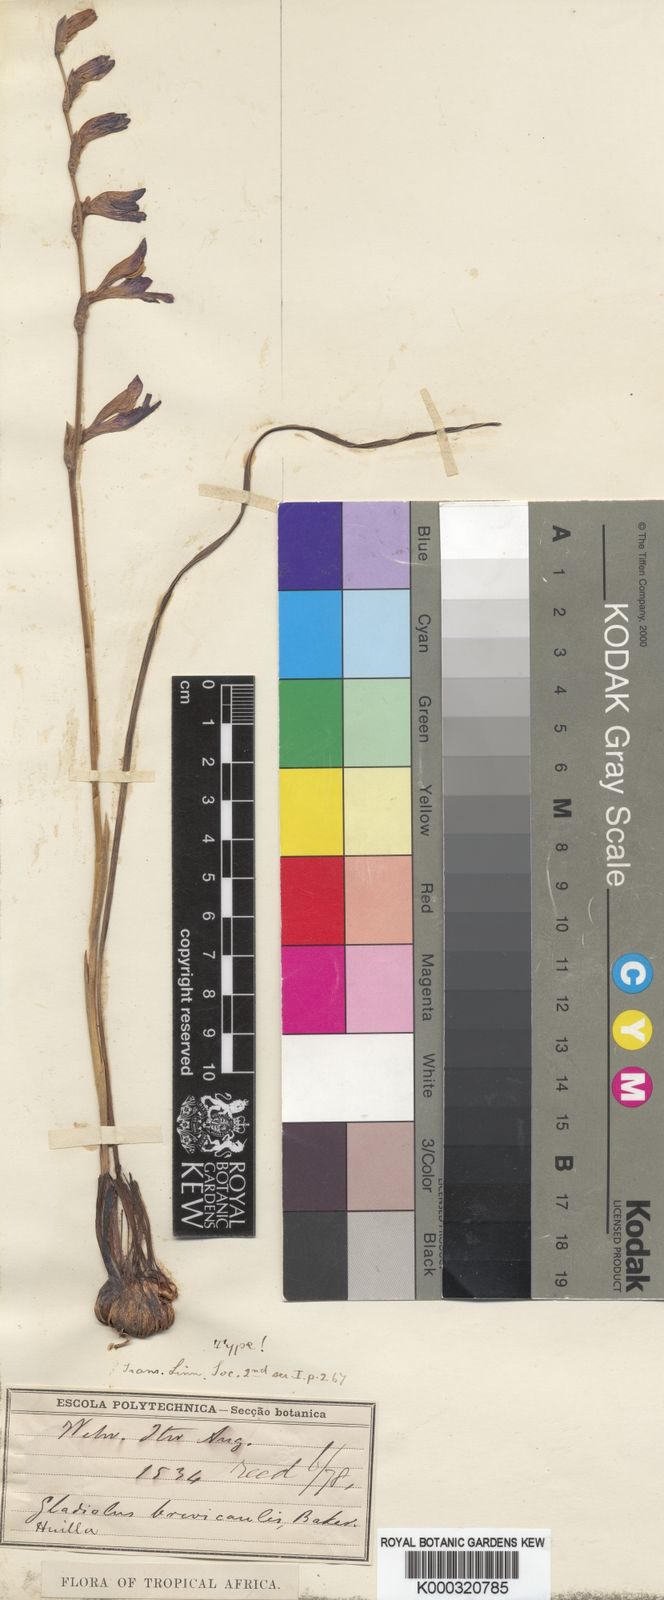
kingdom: Plantae
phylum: Tracheophyta
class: Liliopsida
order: Asparagales
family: Iridaceae
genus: Gladiolus
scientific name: Gladiolus unguiculatus
